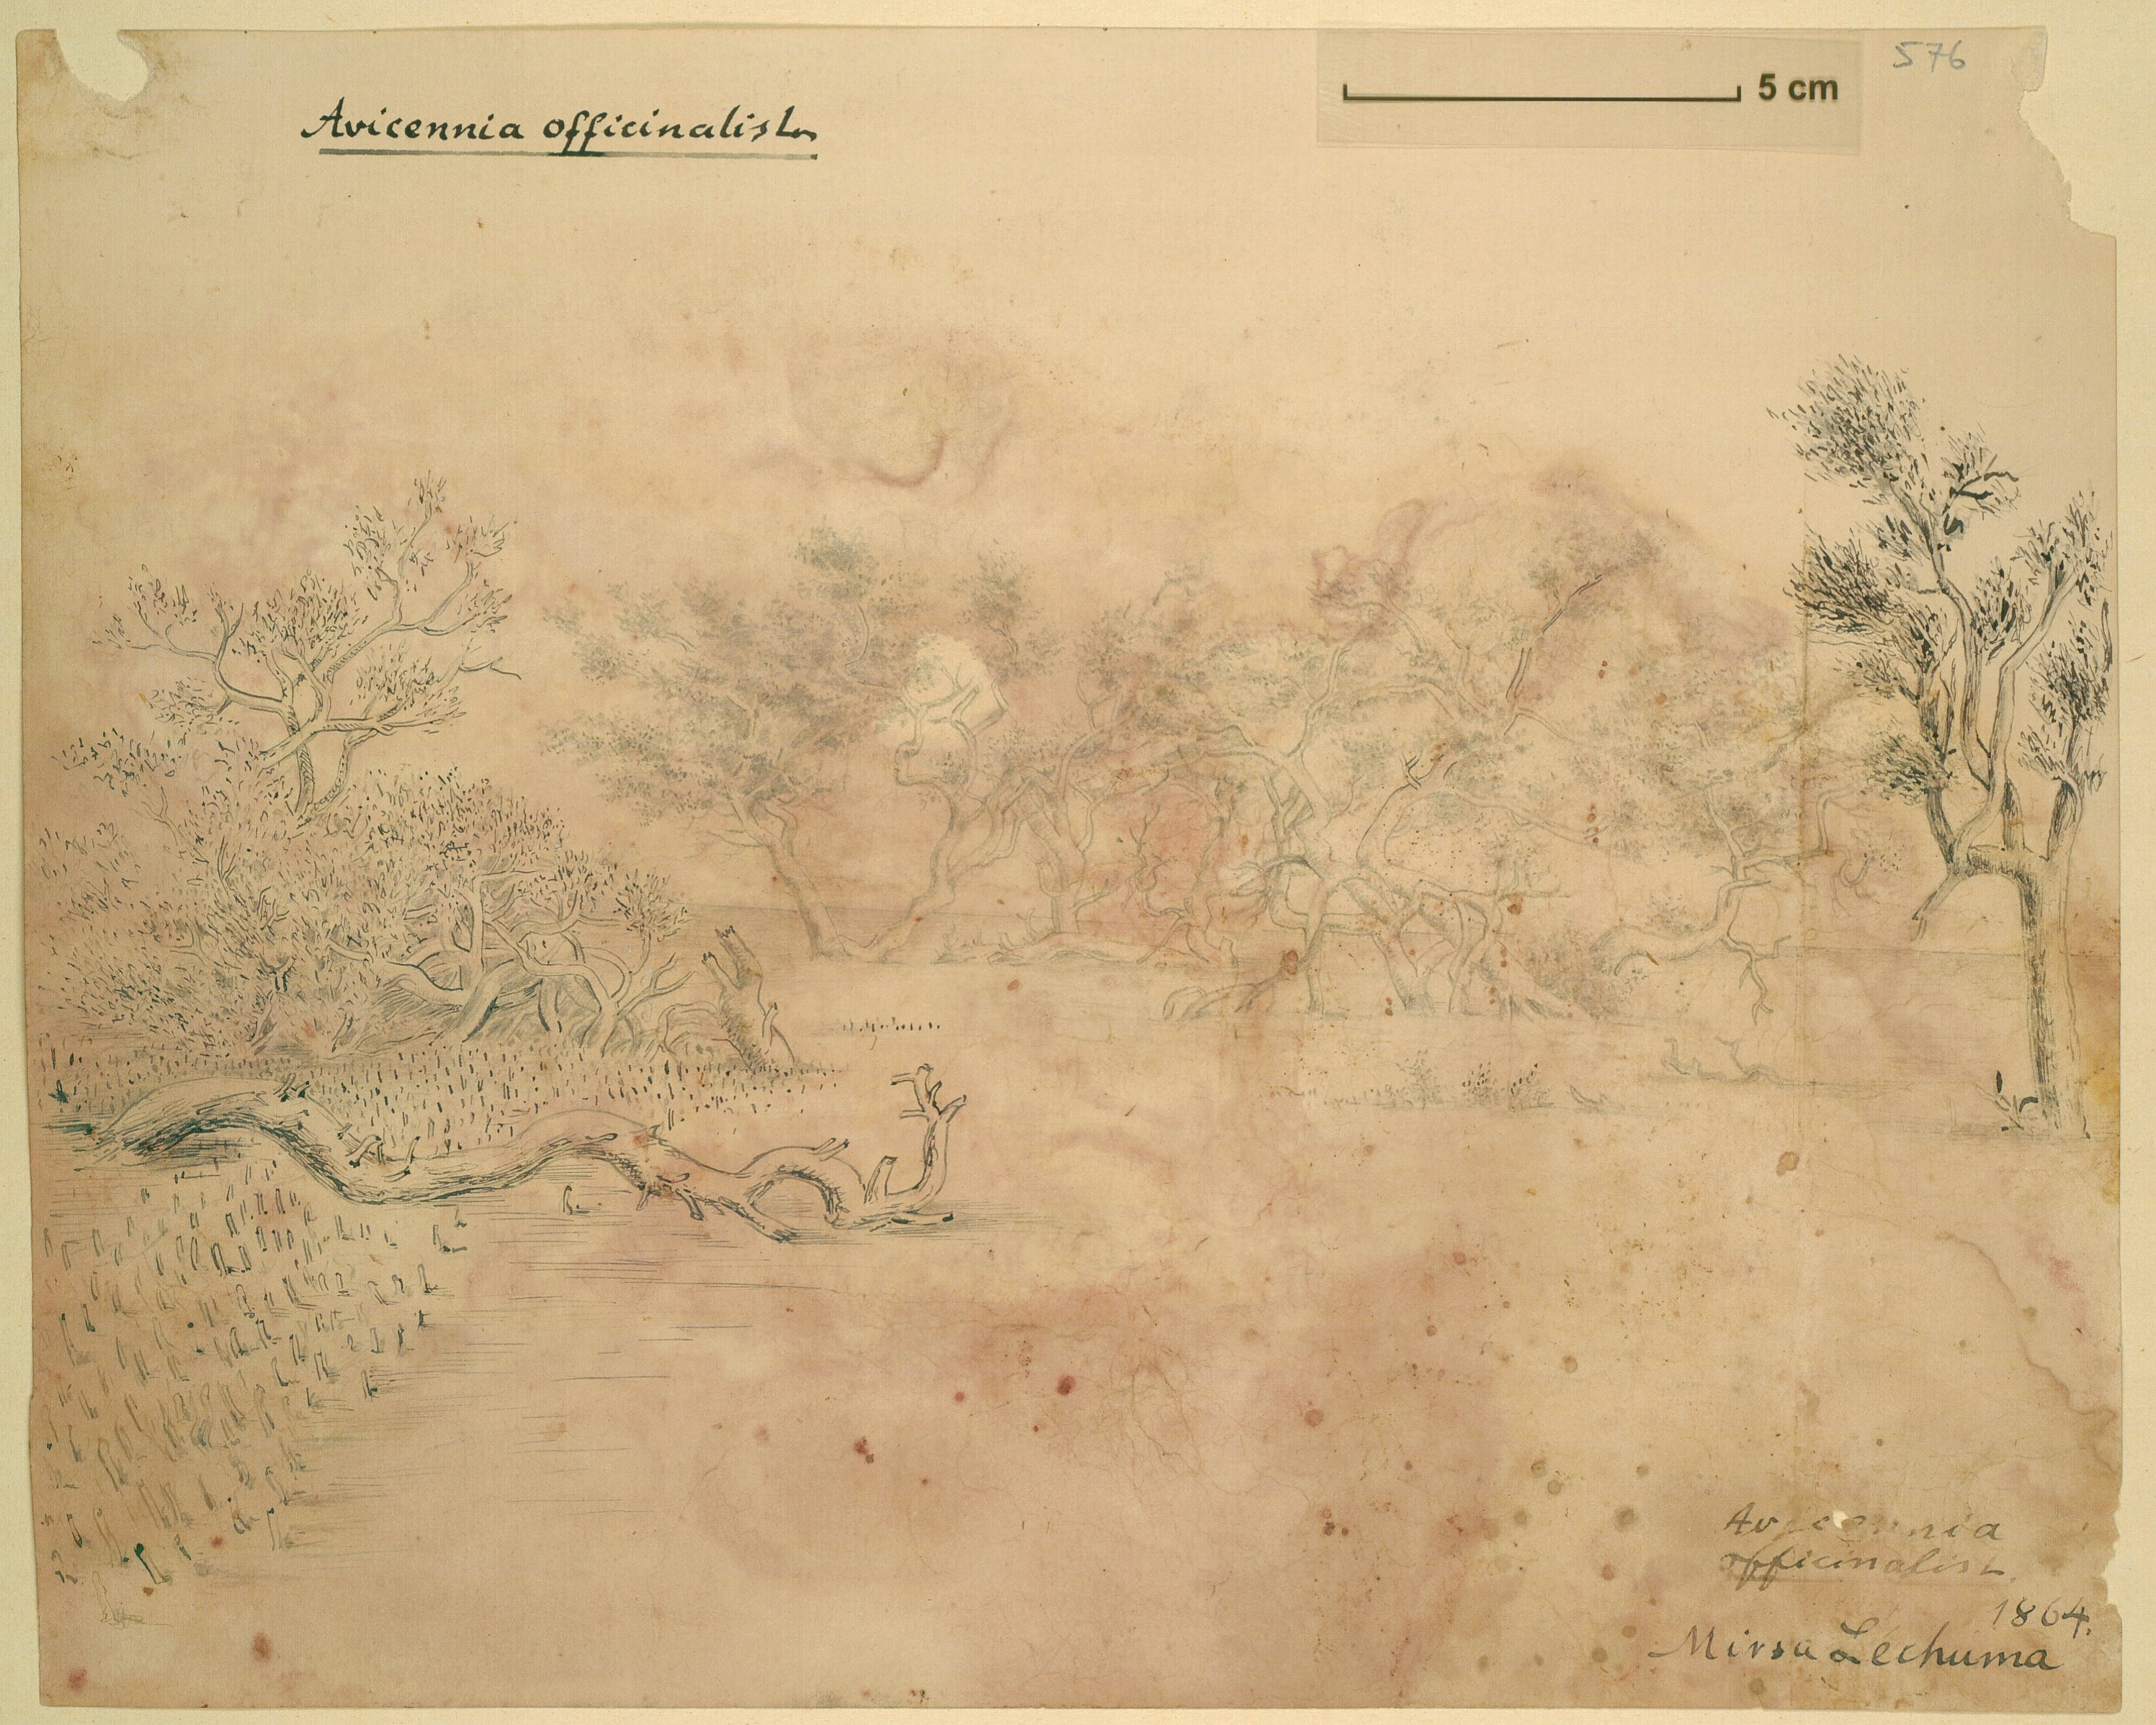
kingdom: Plantae
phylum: Tracheophyta
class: Magnoliopsida
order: Lamiales
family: Acanthaceae
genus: Avicennia
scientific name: Avicennia officinalis
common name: Baen
